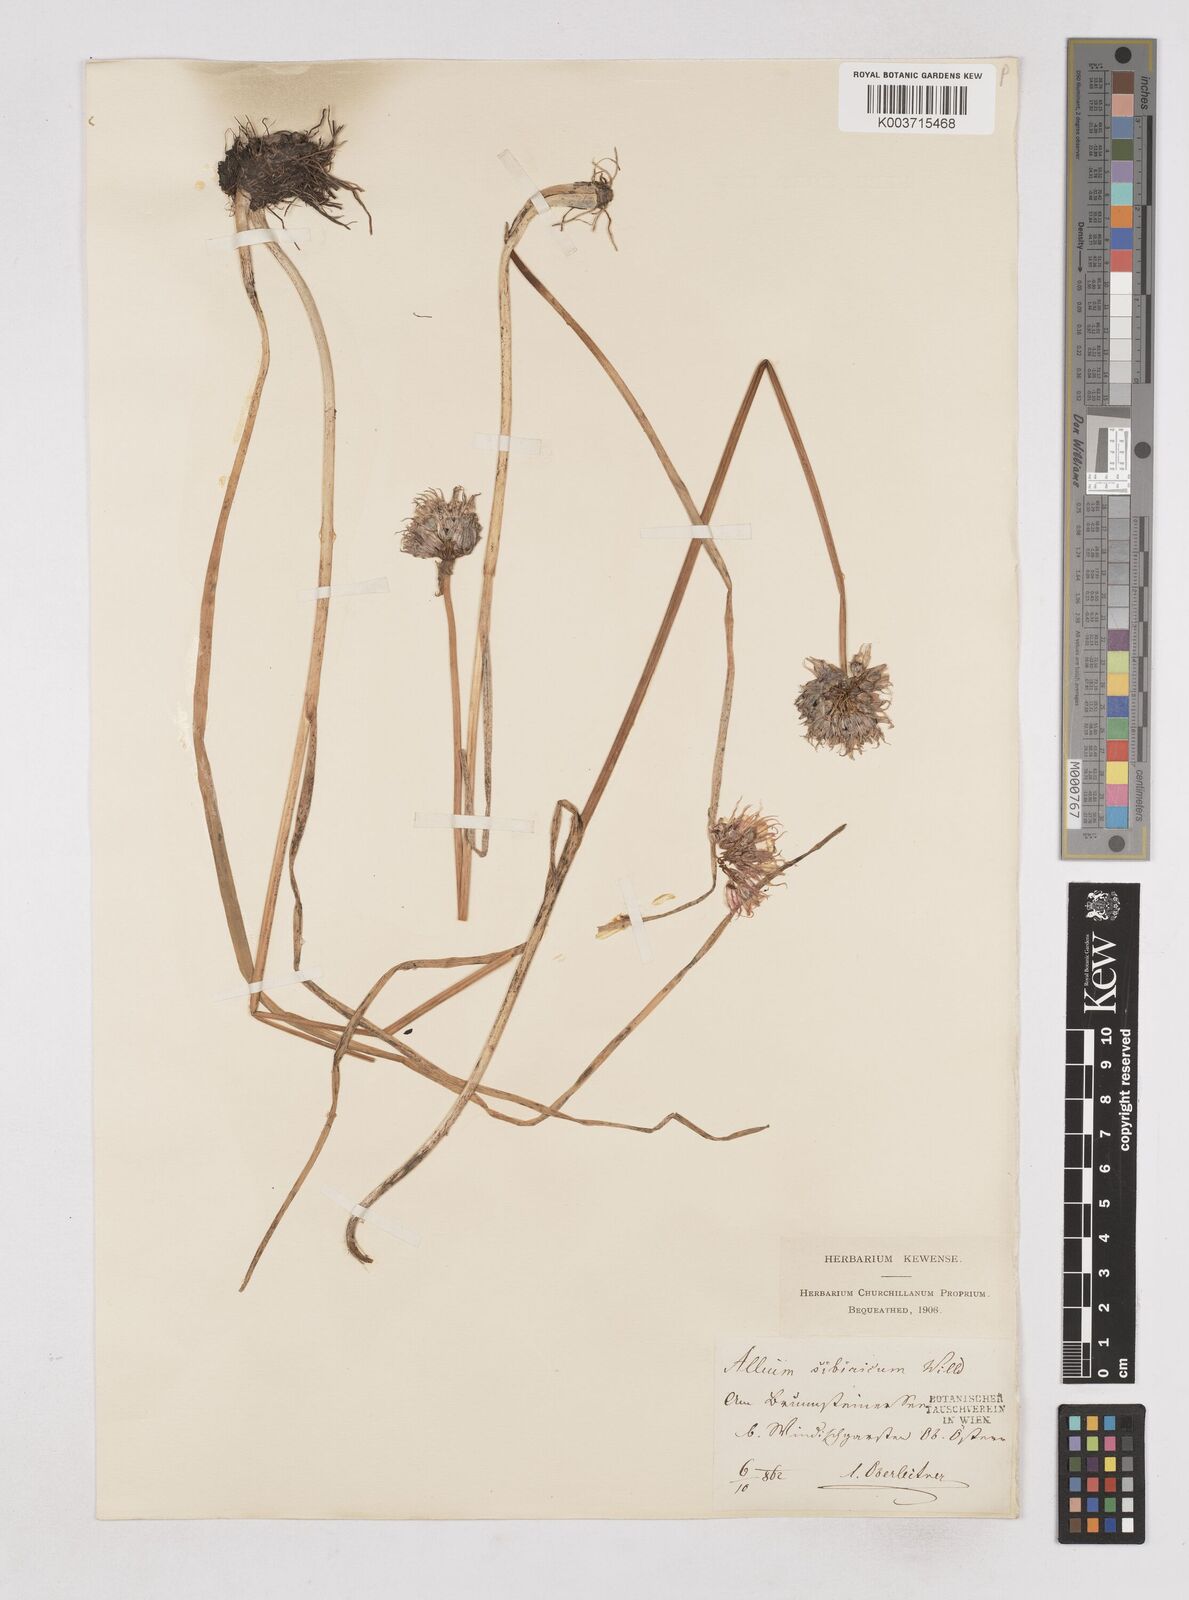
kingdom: Plantae
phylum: Tracheophyta
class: Liliopsida
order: Asparagales
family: Amaryllidaceae
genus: Allium
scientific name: Allium schoenoprasum
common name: Chives
